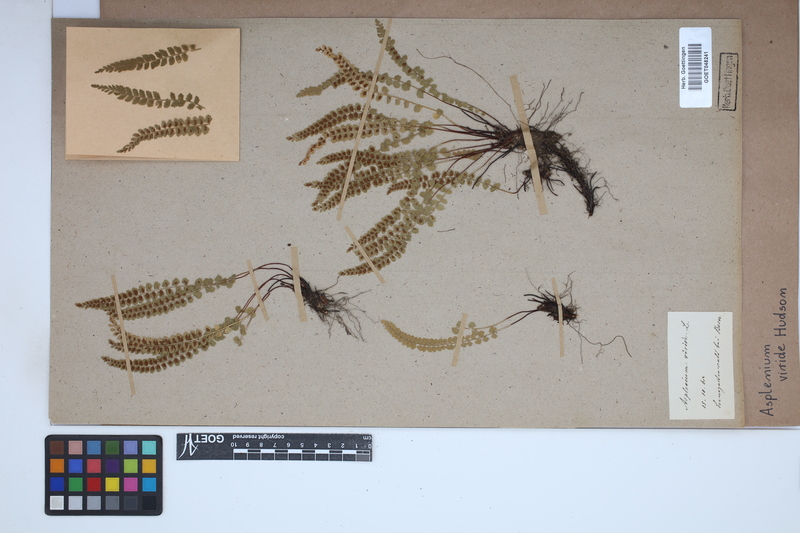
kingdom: Plantae
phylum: Tracheophyta
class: Polypodiopsida
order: Polypodiales
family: Aspleniaceae
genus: Asplenium
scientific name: Asplenium viride
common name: Green spleenwort
